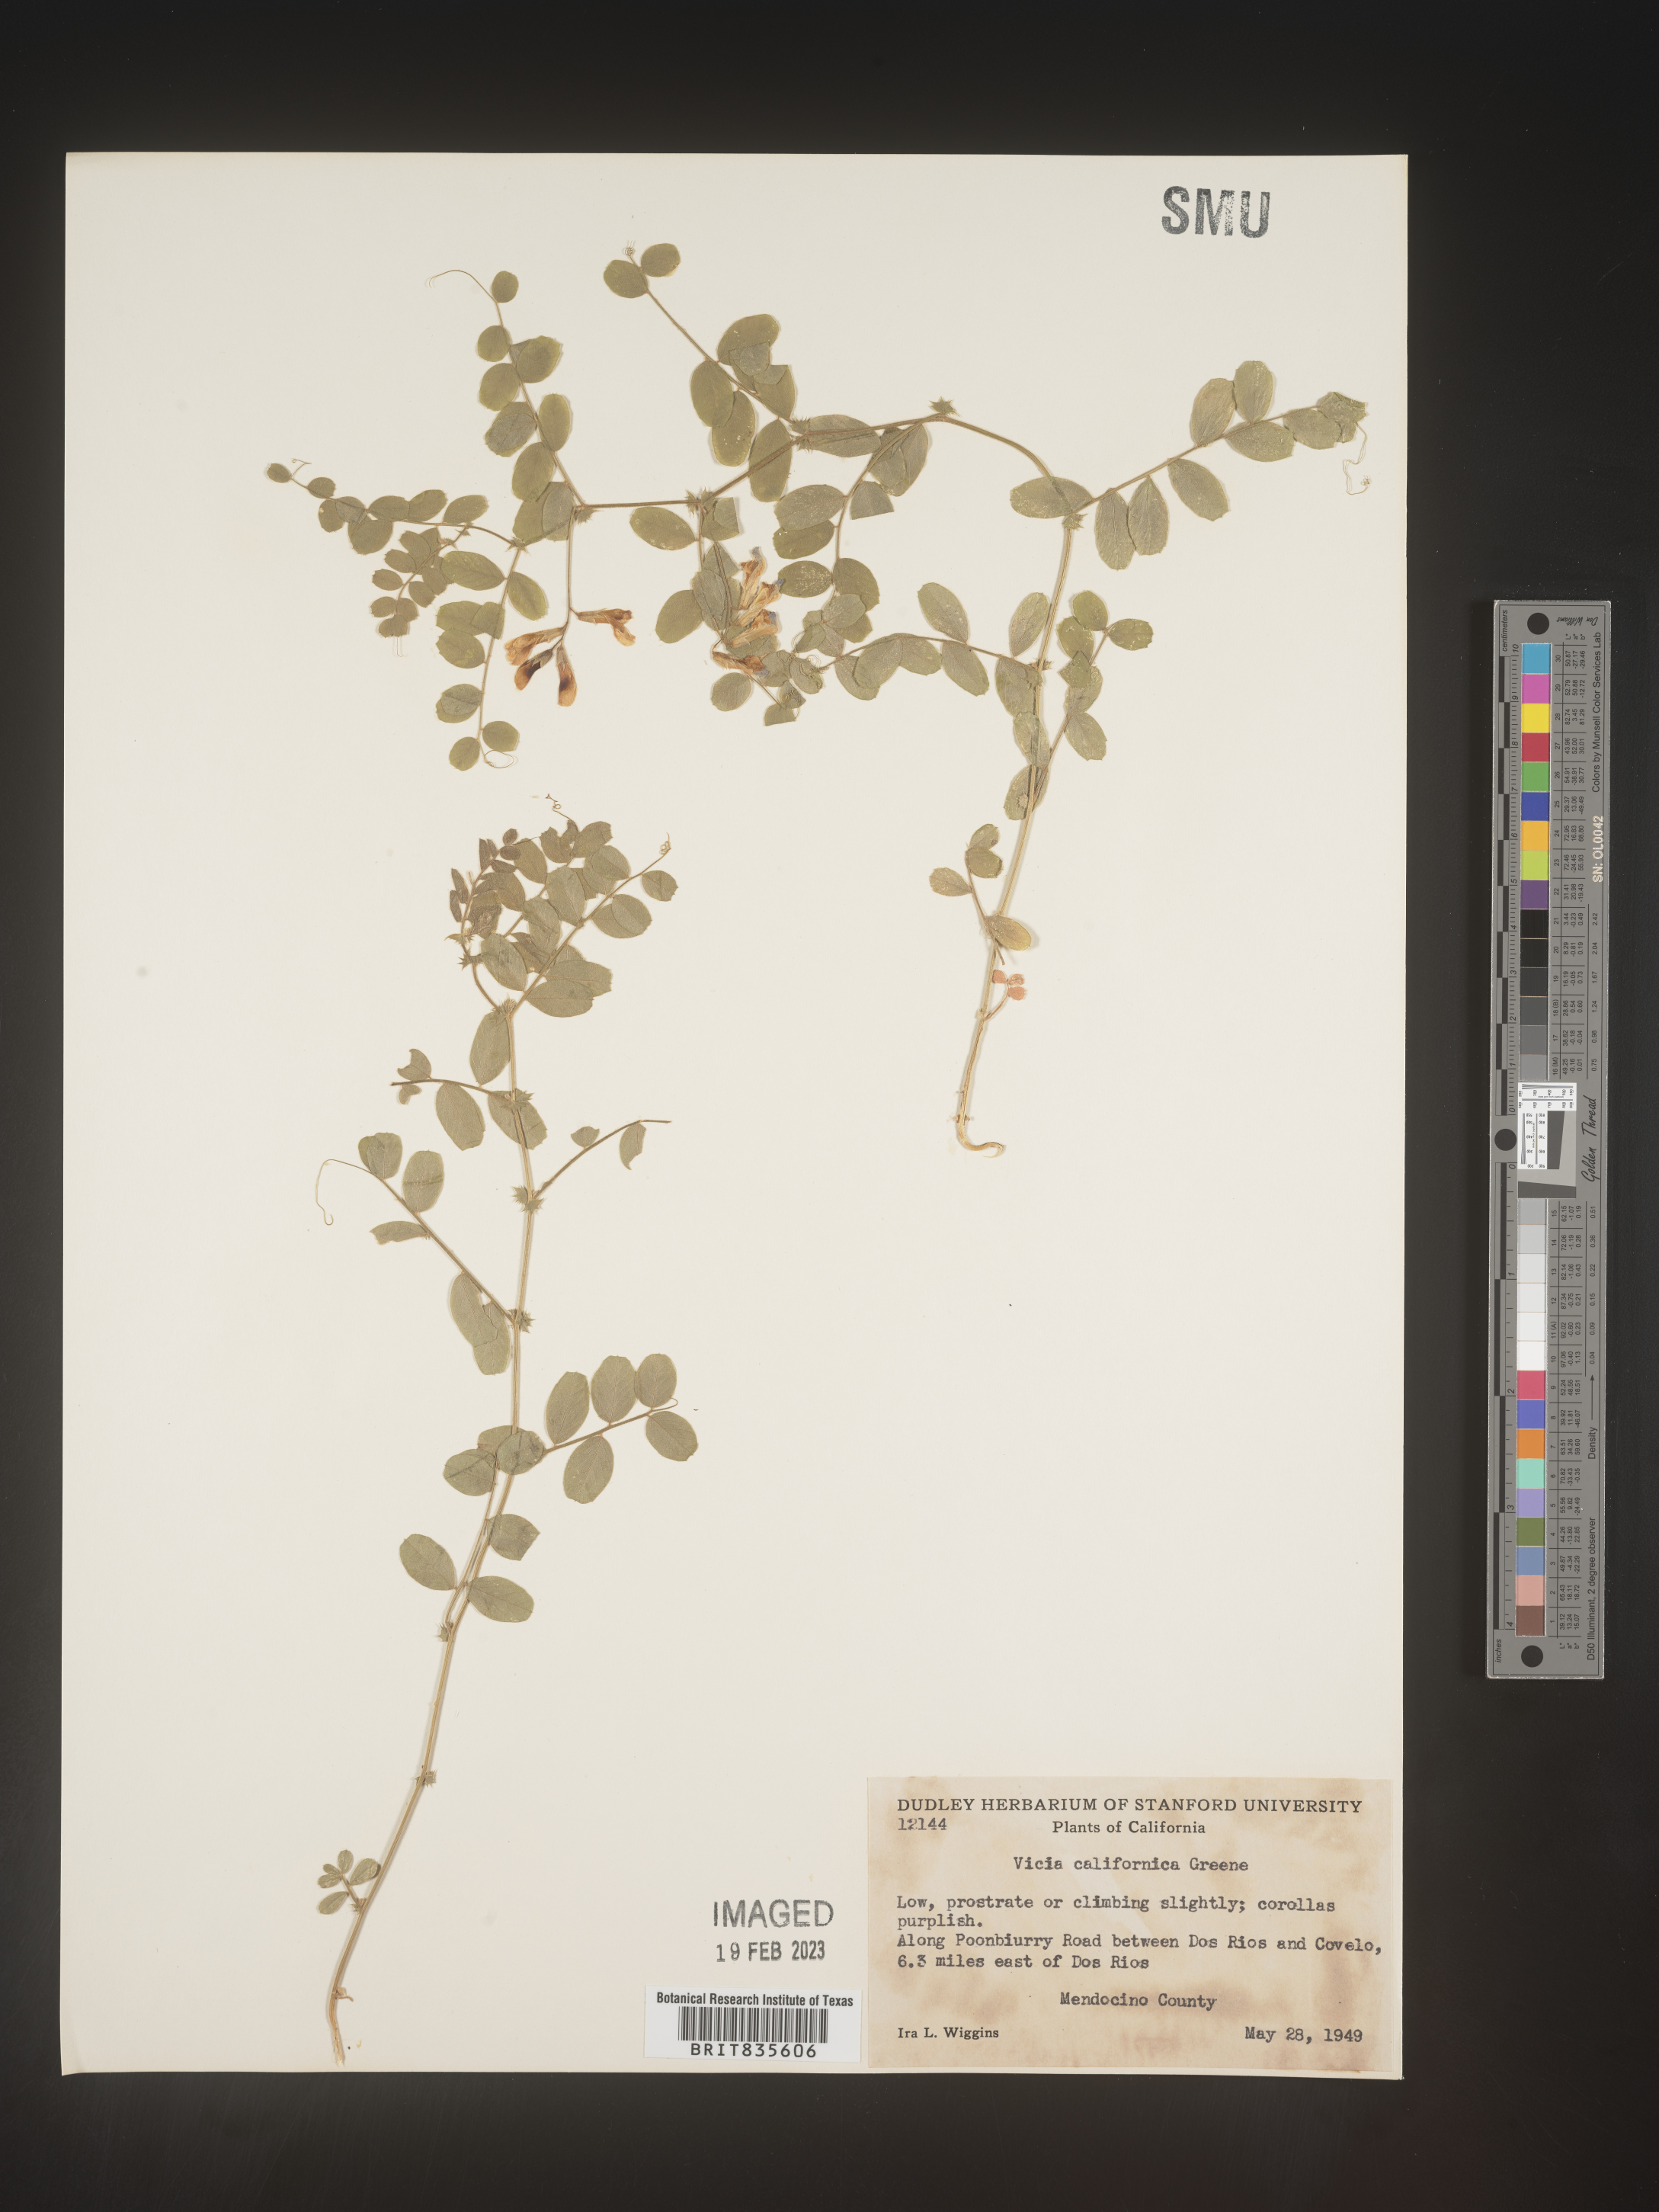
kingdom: Plantae
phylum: Tracheophyta
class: Magnoliopsida
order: Fabales
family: Fabaceae
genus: Vicia
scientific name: Vicia americana
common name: American vetch
